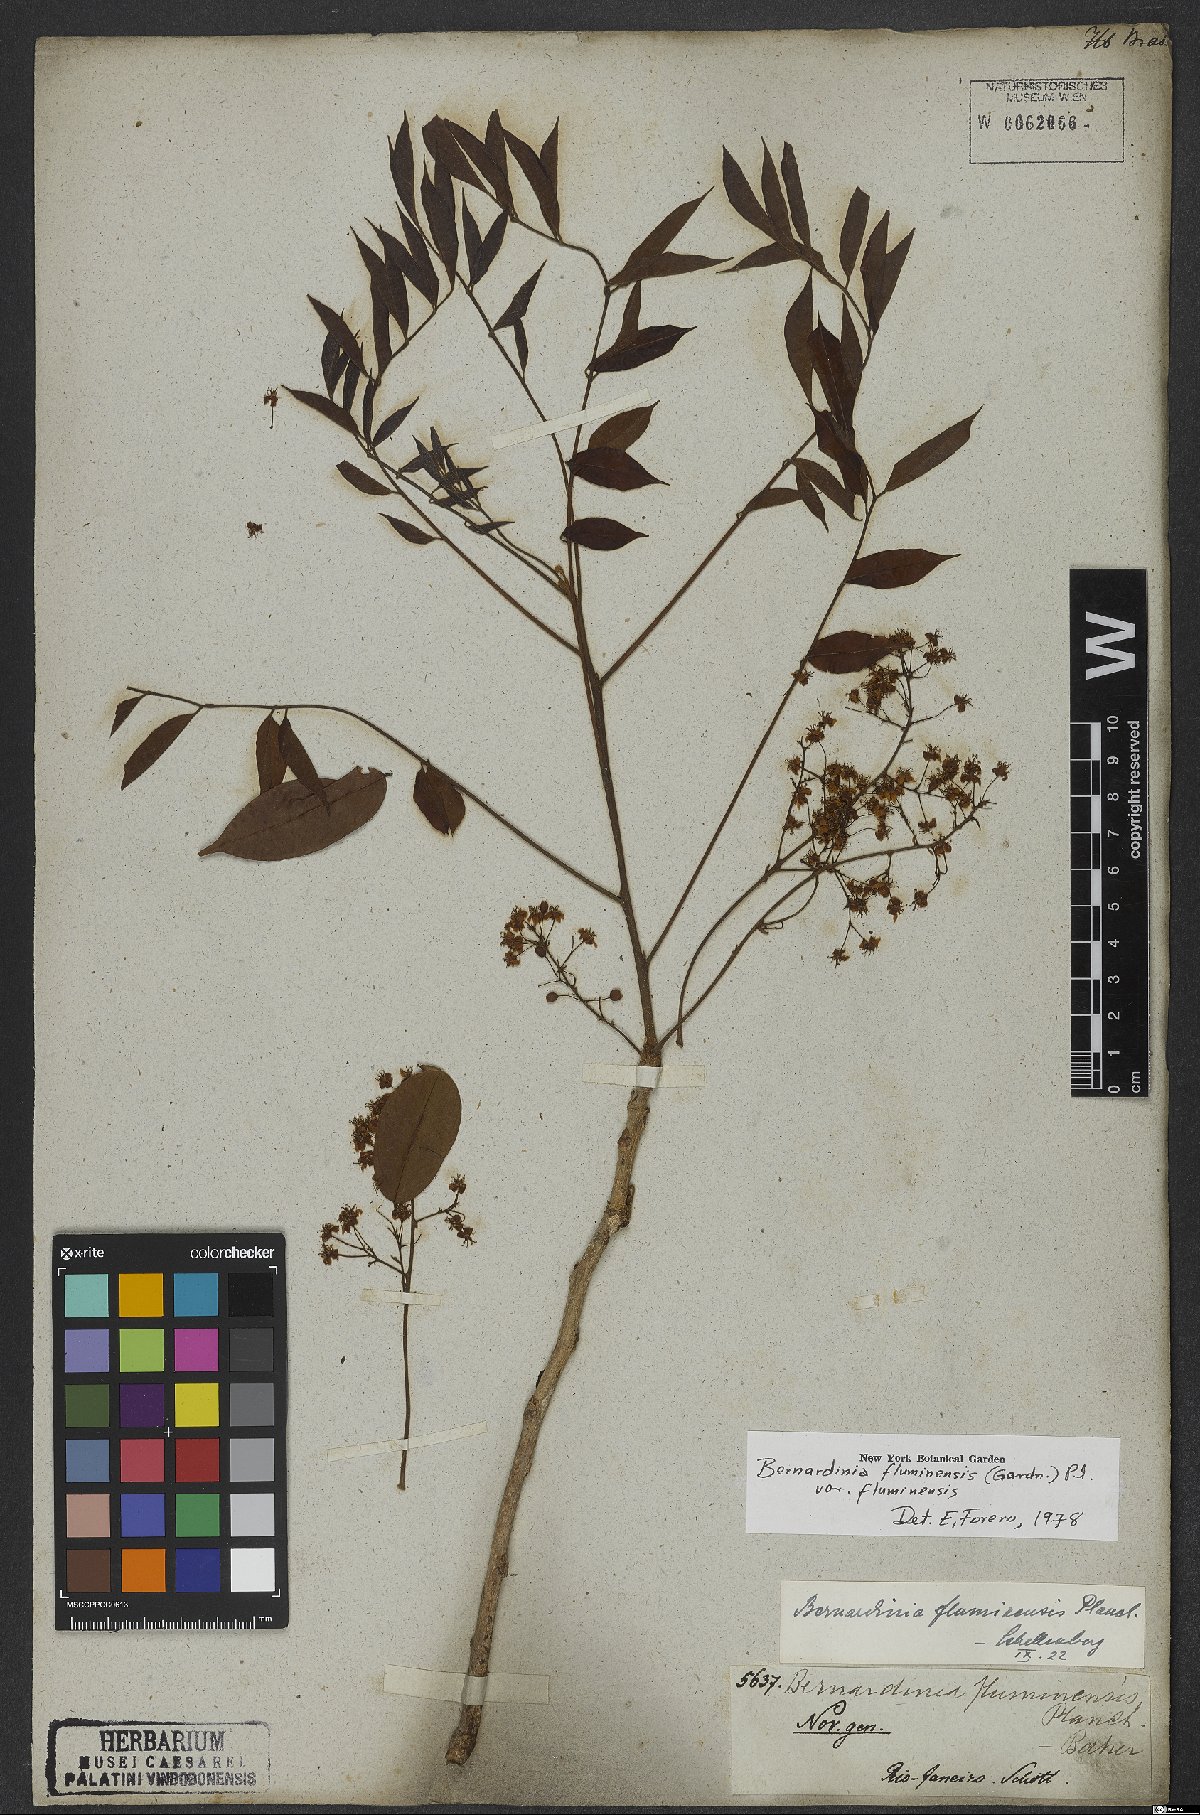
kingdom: Plantae
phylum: Tracheophyta
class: Magnoliopsida
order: Oxalidales
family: Connaraceae
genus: Rourea
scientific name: Rourea fluminensis
